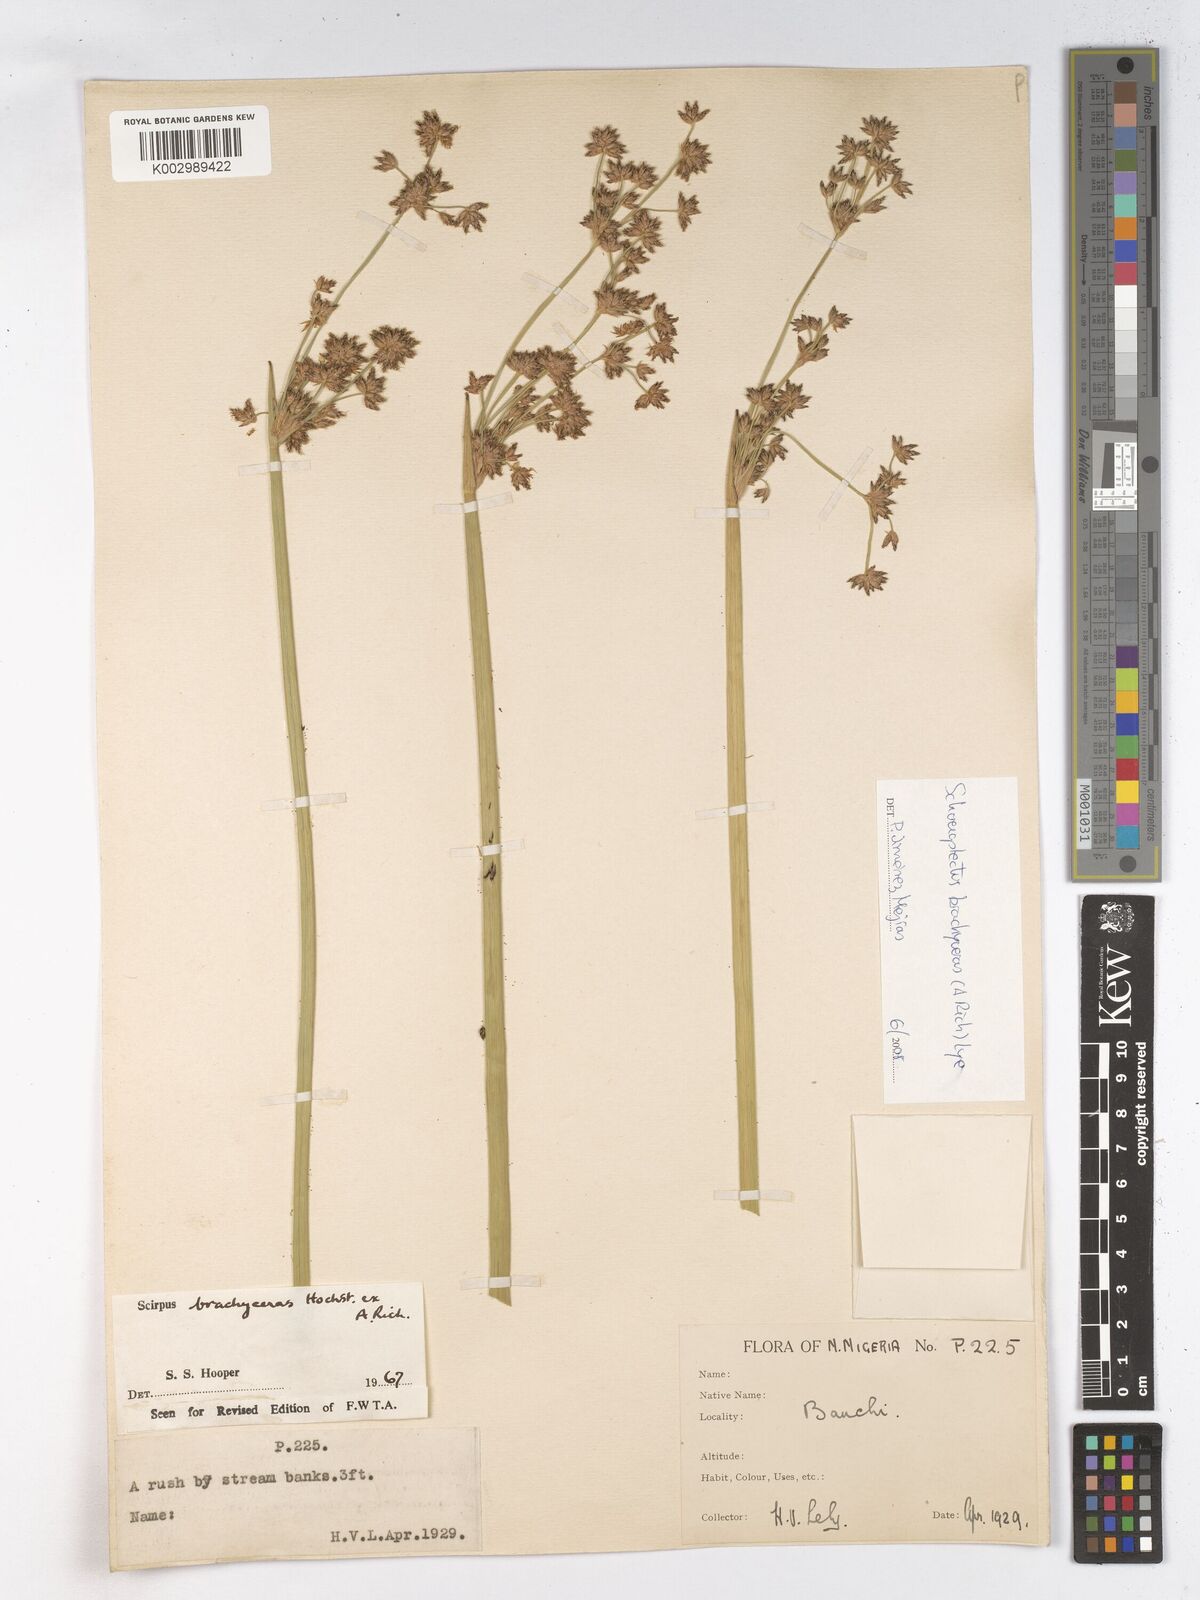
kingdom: Plantae
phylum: Tracheophyta
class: Liliopsida
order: Poales
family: Cyperaceae
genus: Schoenoplectiella
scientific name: Schoenoplectiella corymbosa
